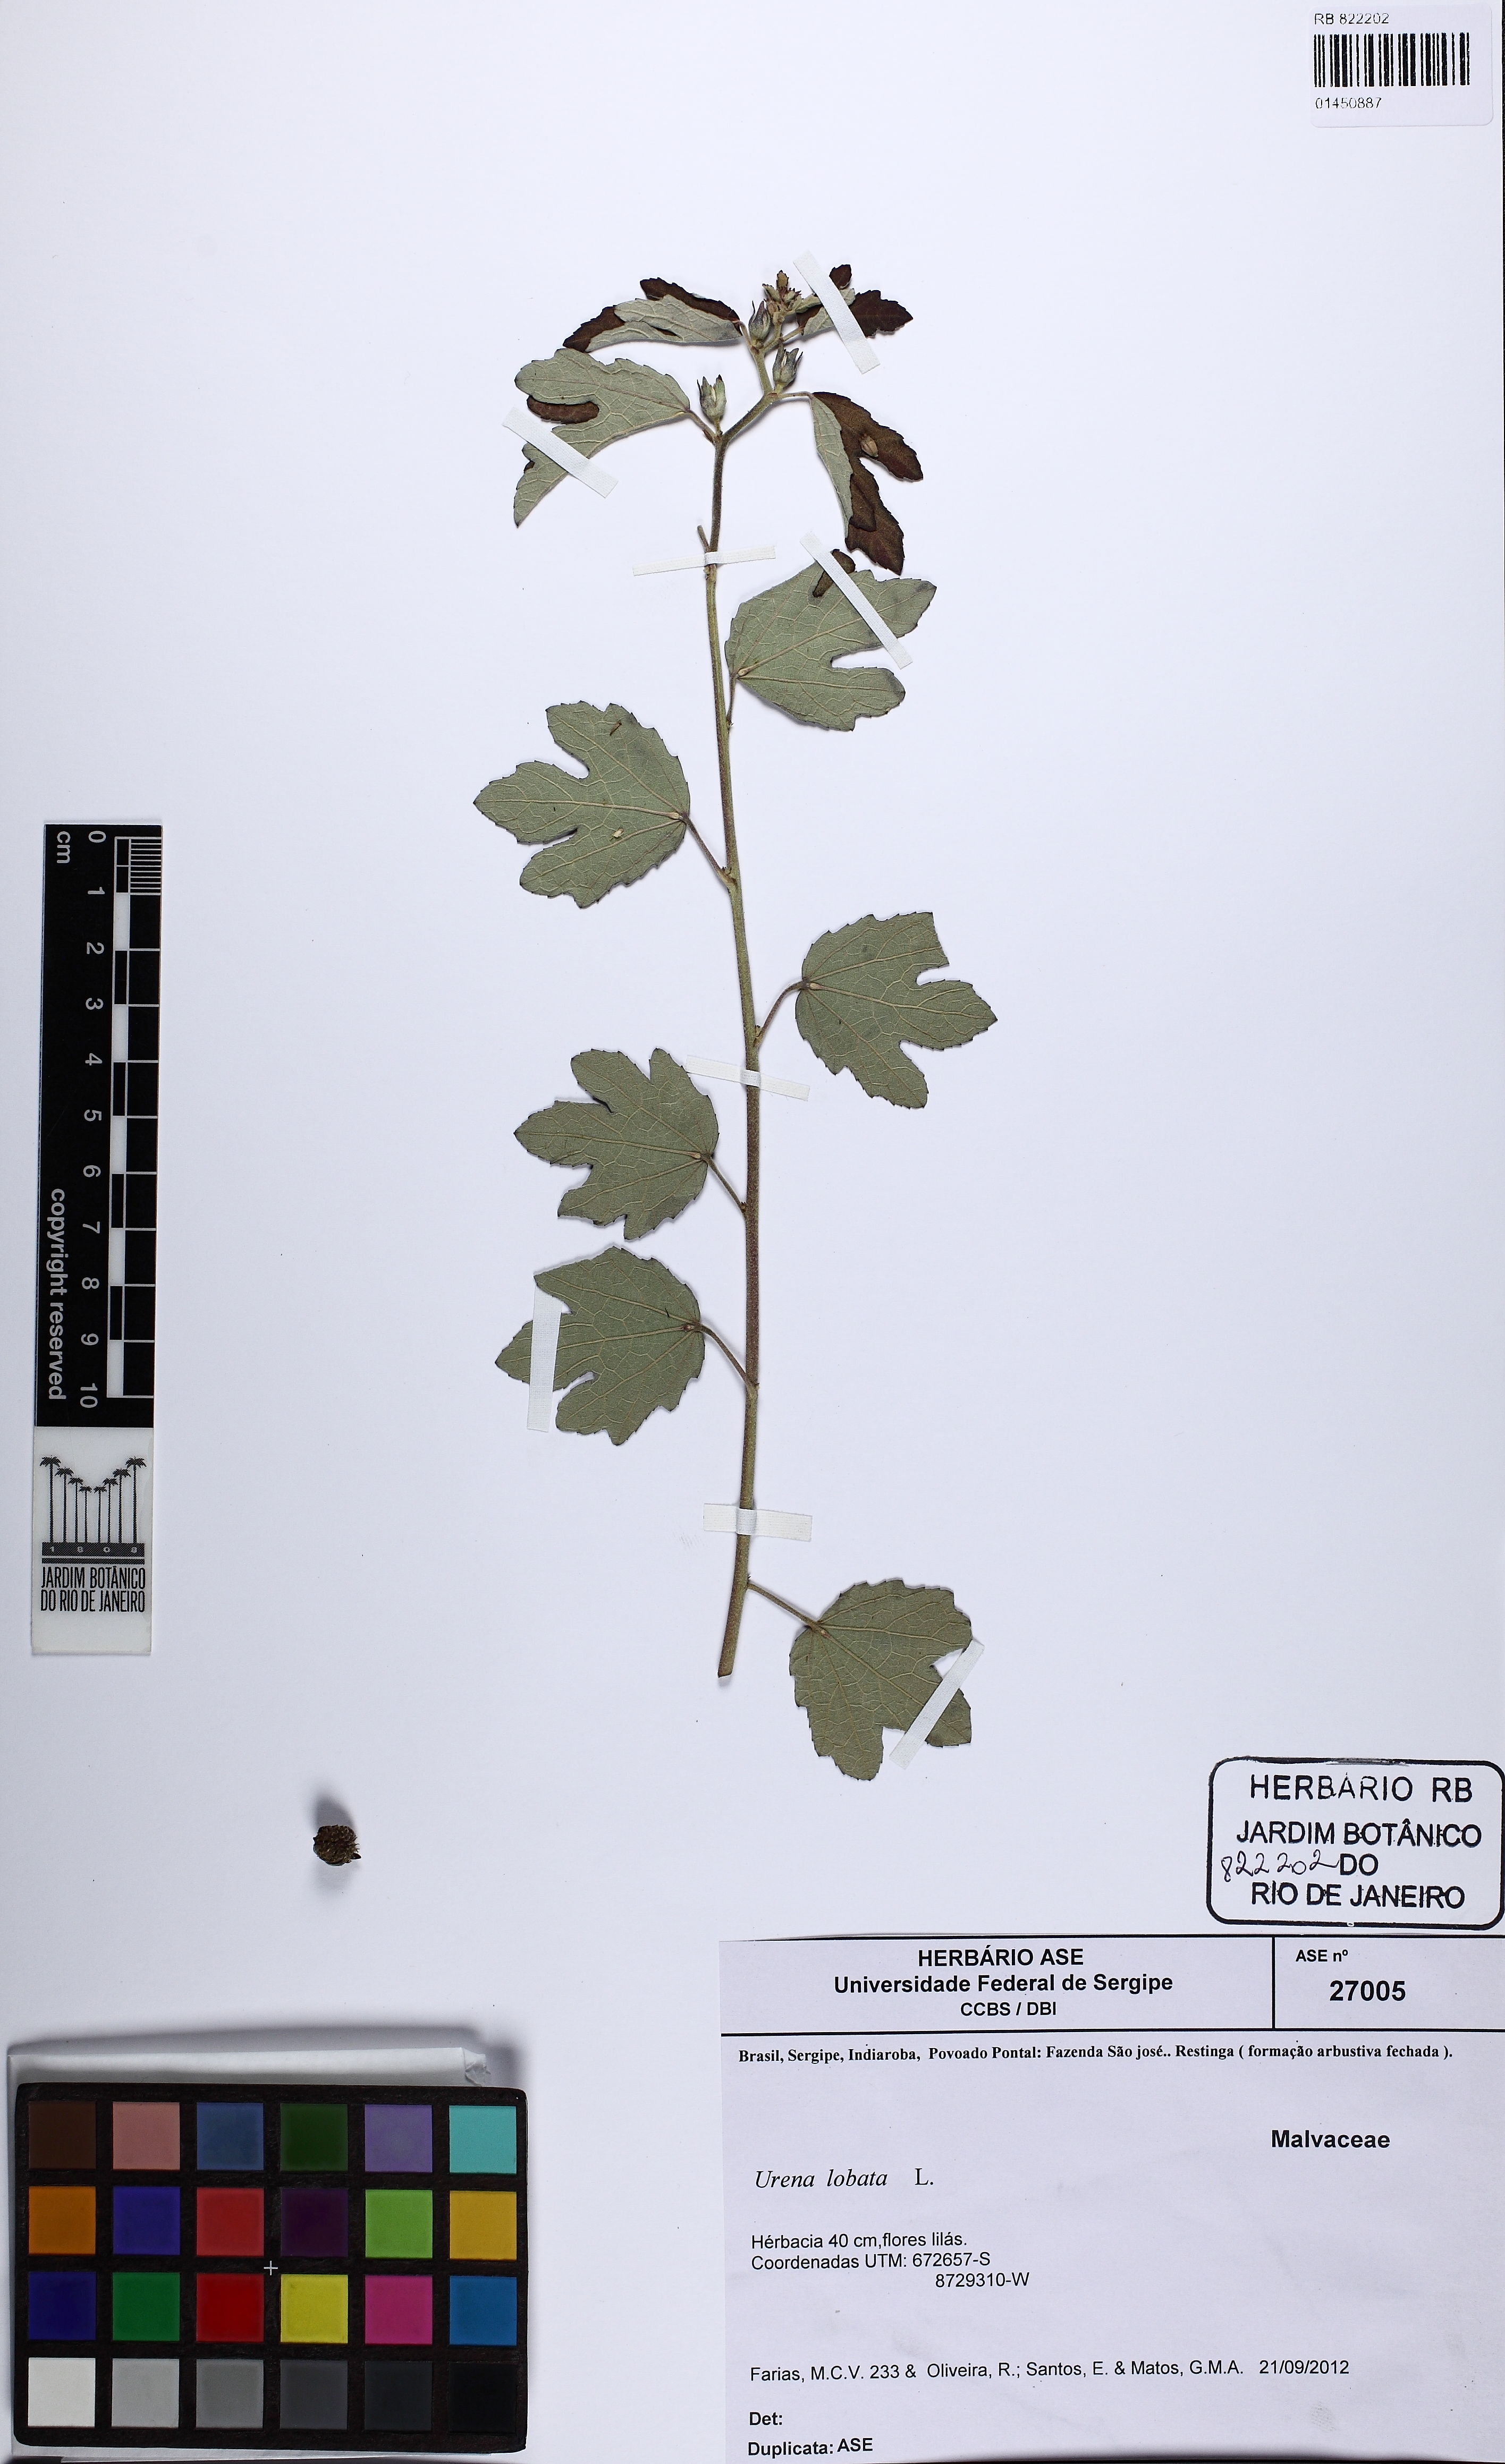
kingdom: Plantae
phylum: Tracheophyta
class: Magnoliopsida
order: Malvales
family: Malvaceae
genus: Urena
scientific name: Urena lobata
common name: Caesarweed
